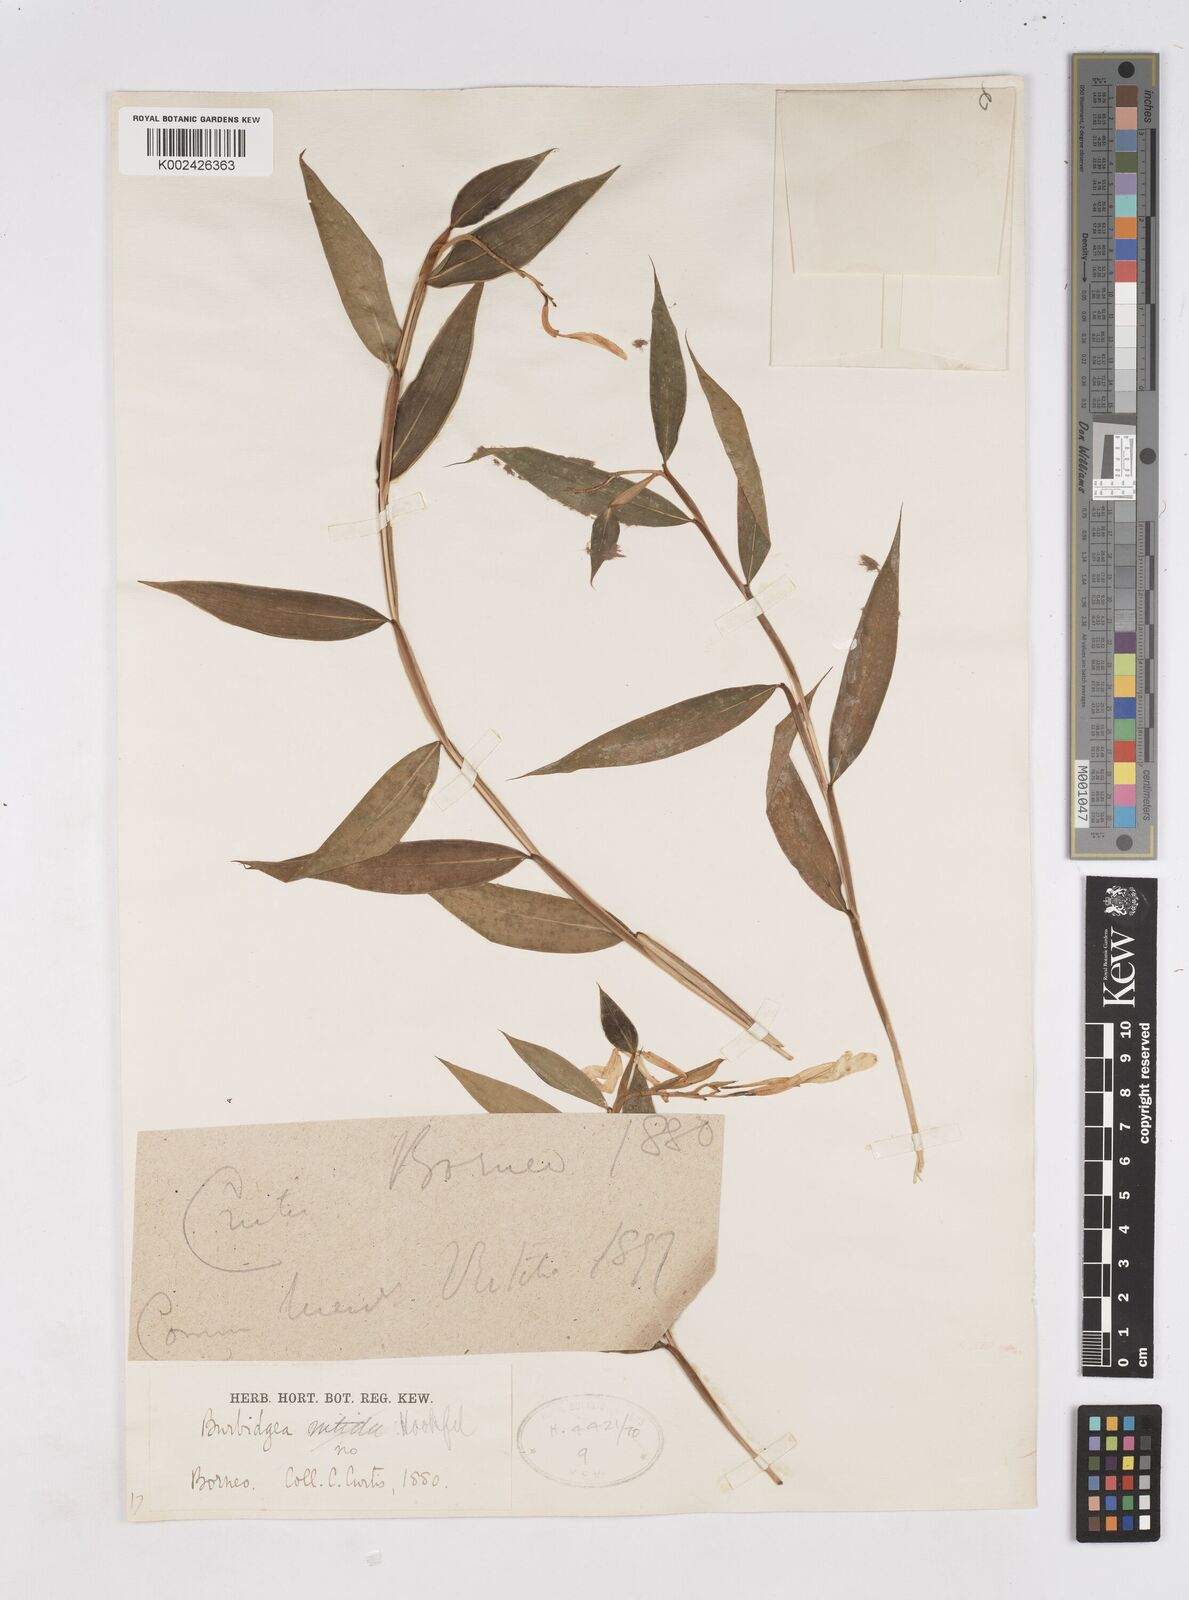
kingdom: Plantae
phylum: Tracheophyta
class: Liliopsida
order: Zingiberales
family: Zingiberaceae
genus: Burbidgea
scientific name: Burbidgea
